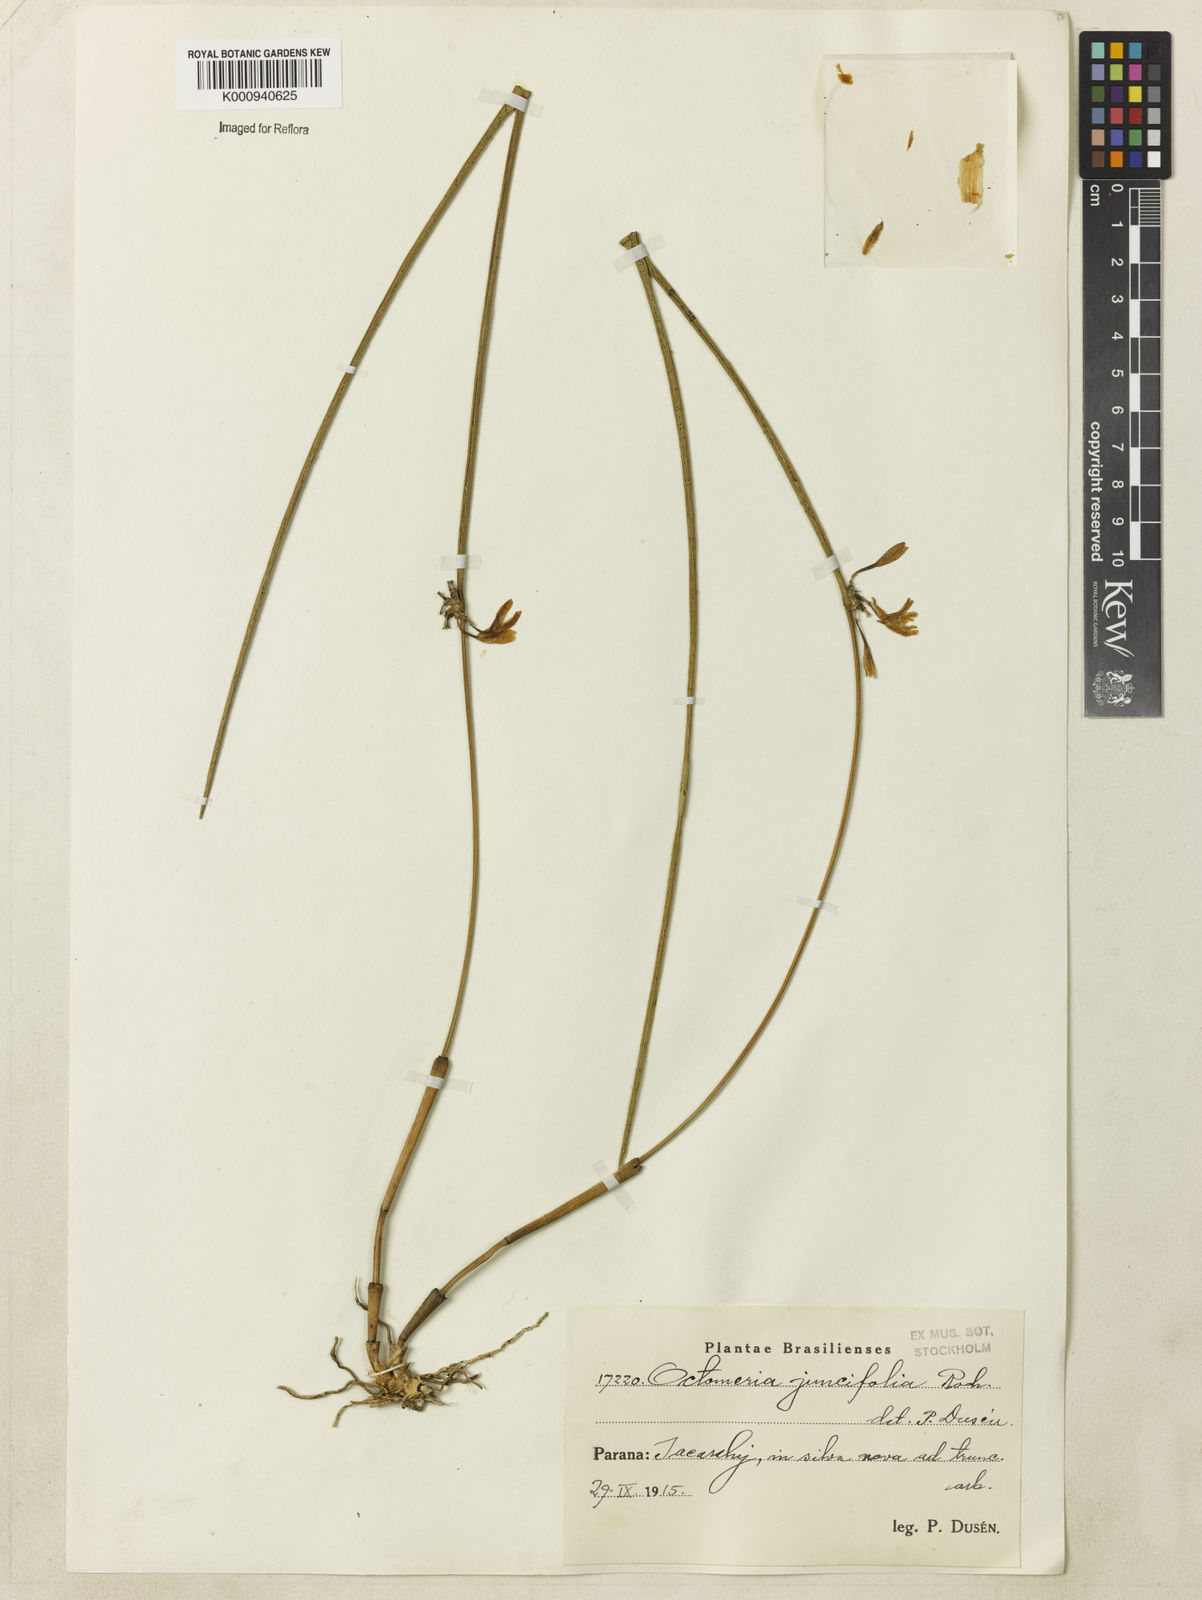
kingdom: Plantae
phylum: Tracheophyta
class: Liliopsida
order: Asparagales
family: Orchidaceae
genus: Octomeria
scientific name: Octomeria juncifolia
